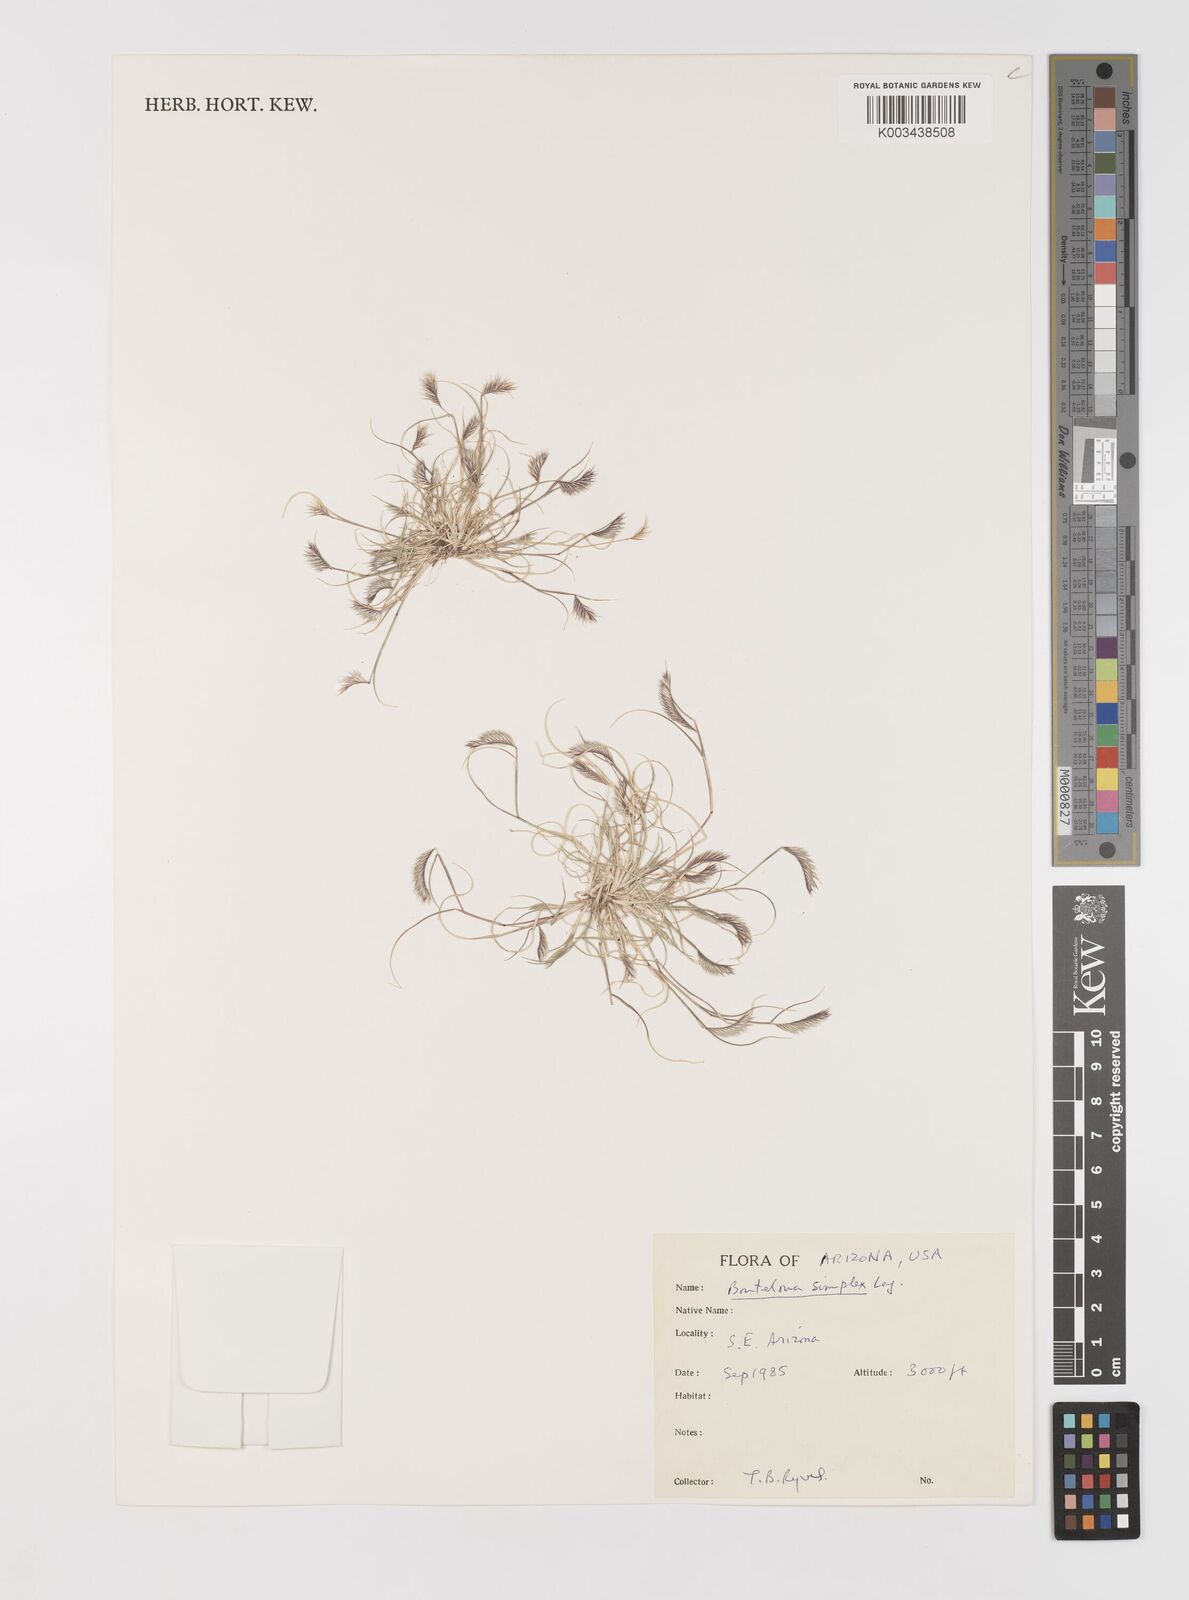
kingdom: Plantae
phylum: Tracheophyta
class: Liliopsida
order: Poales
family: Poaceae
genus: Bouteloua
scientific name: Bouteloua simplex
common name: Mat grama
